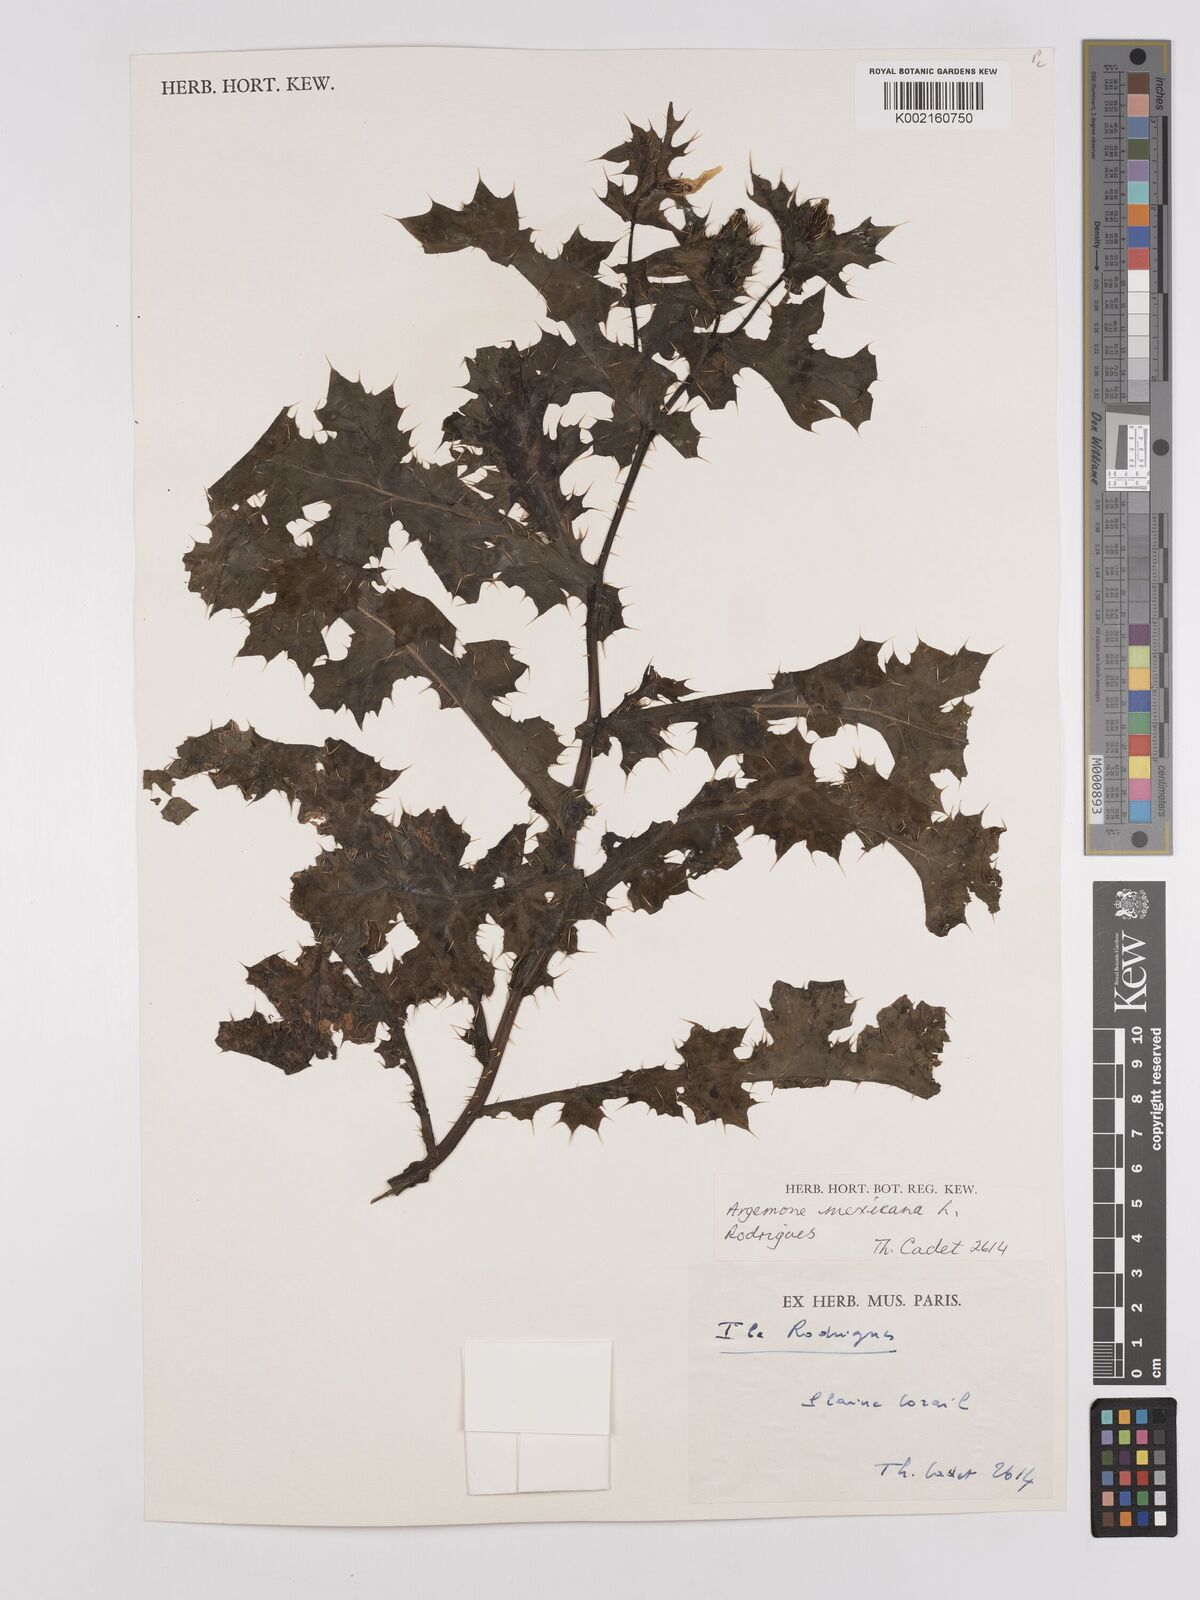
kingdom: Plantae
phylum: Tracheophyta
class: Magnoliopsida
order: Ranunculales
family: Papaveraceae
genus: Argemone
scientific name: Argemone mexicana
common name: Mexican poppy
